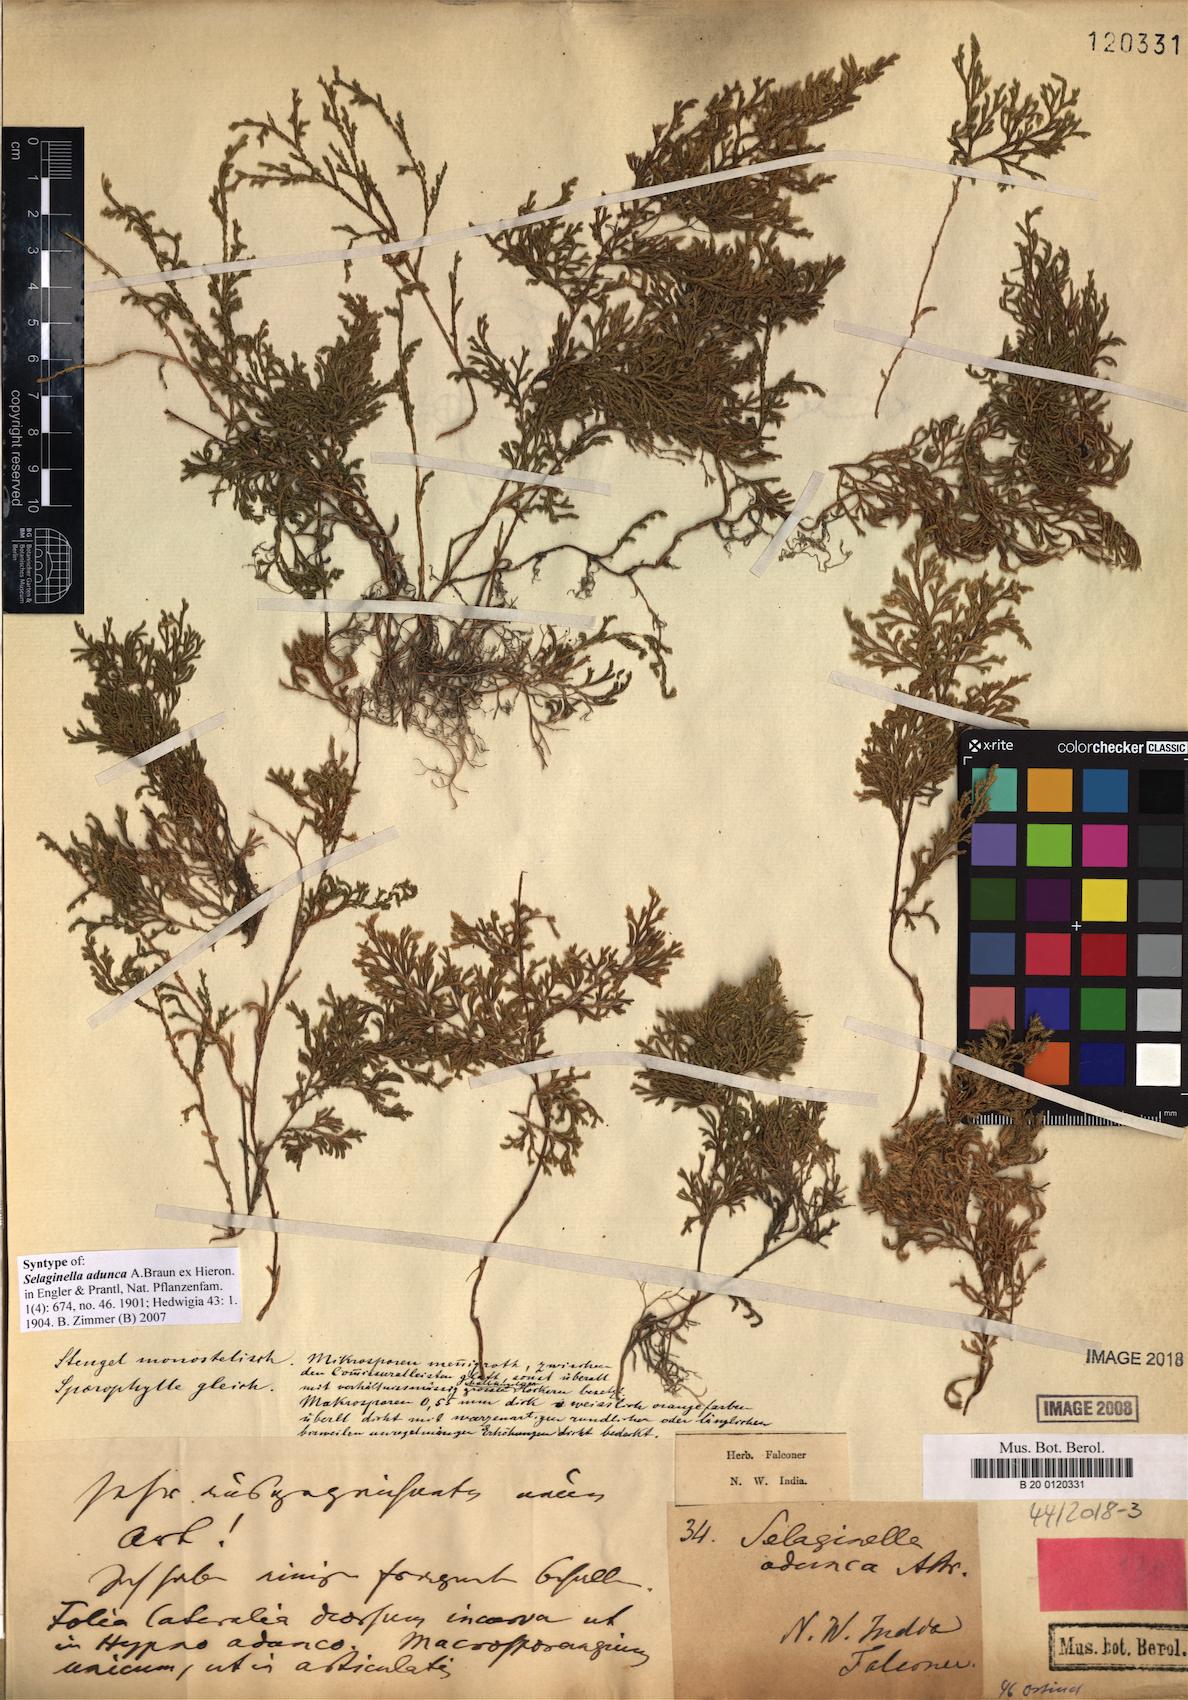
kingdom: Plantae
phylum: Tracheophyta
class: Lycopodiopsida
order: Selaginellales
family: Selaginellaceae
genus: Selaginella
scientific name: Selaginella adunca
